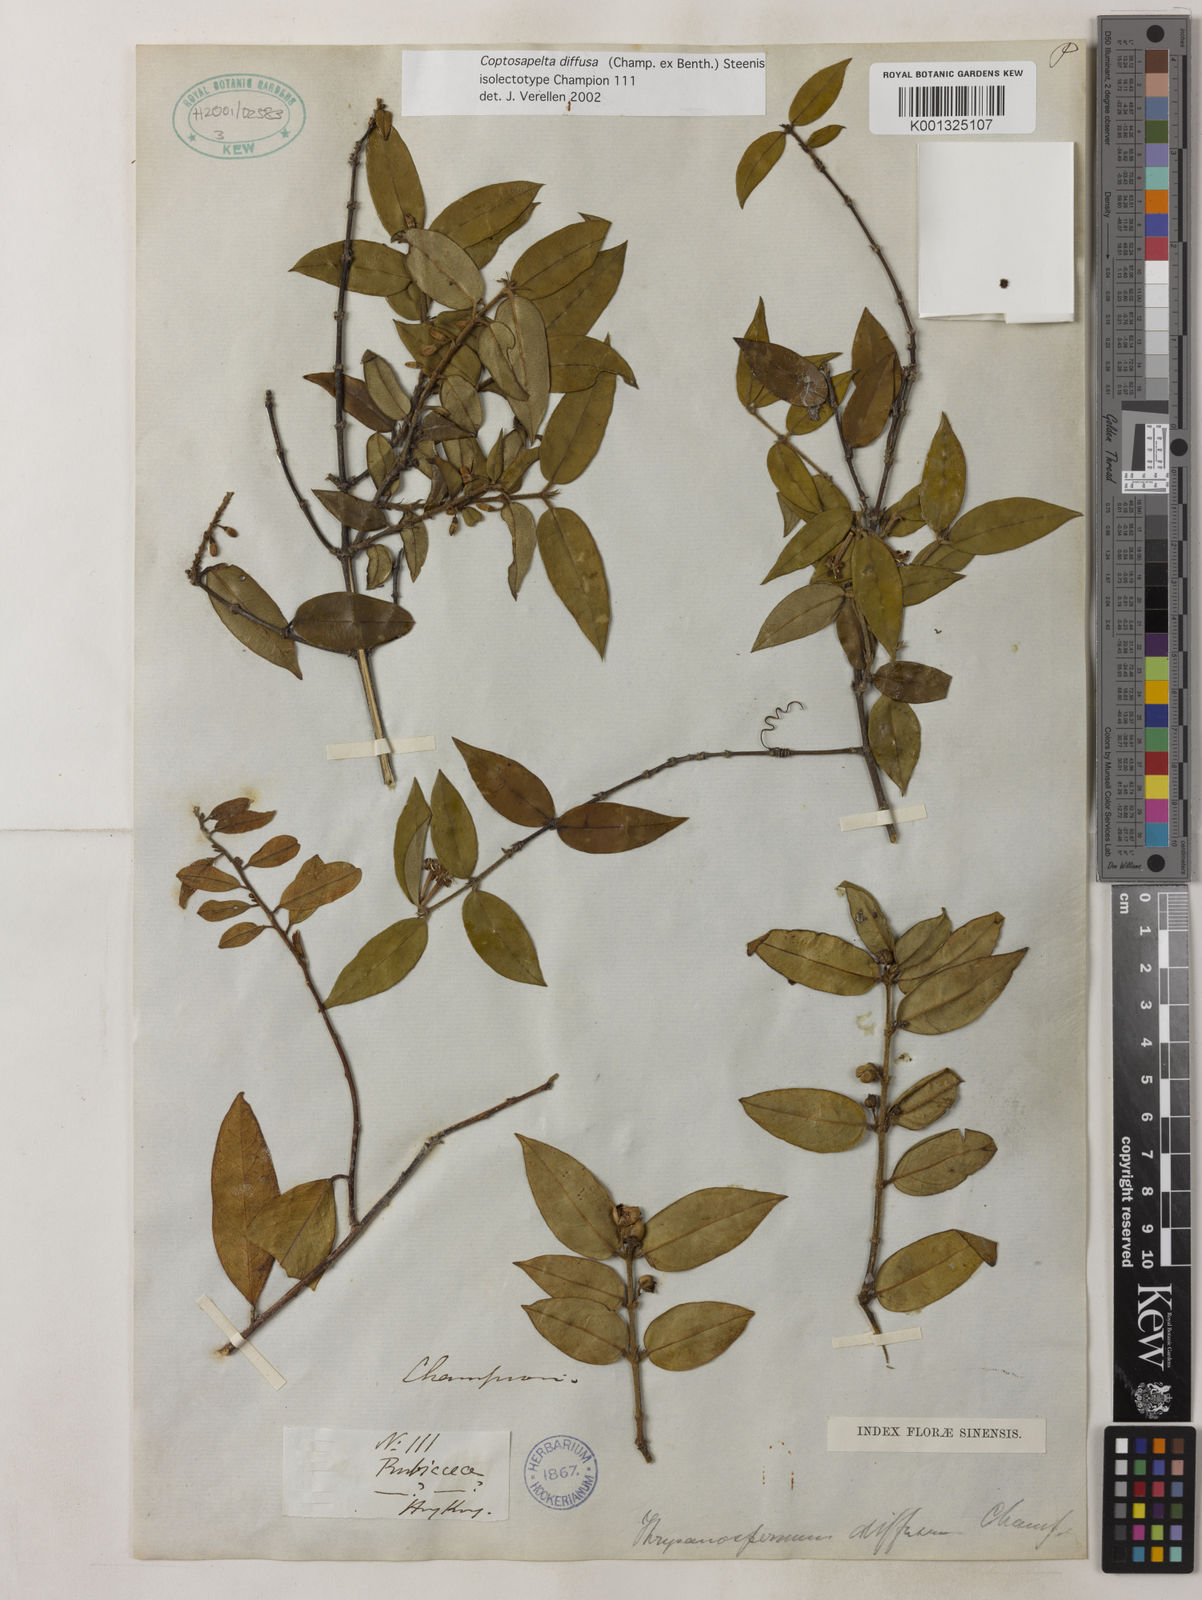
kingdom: Plantae
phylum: Tracheophyta
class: Magnoliopsida
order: Gentianales
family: Rubiaceae
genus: Coptosapelta
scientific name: Coptosapelta diffusa
